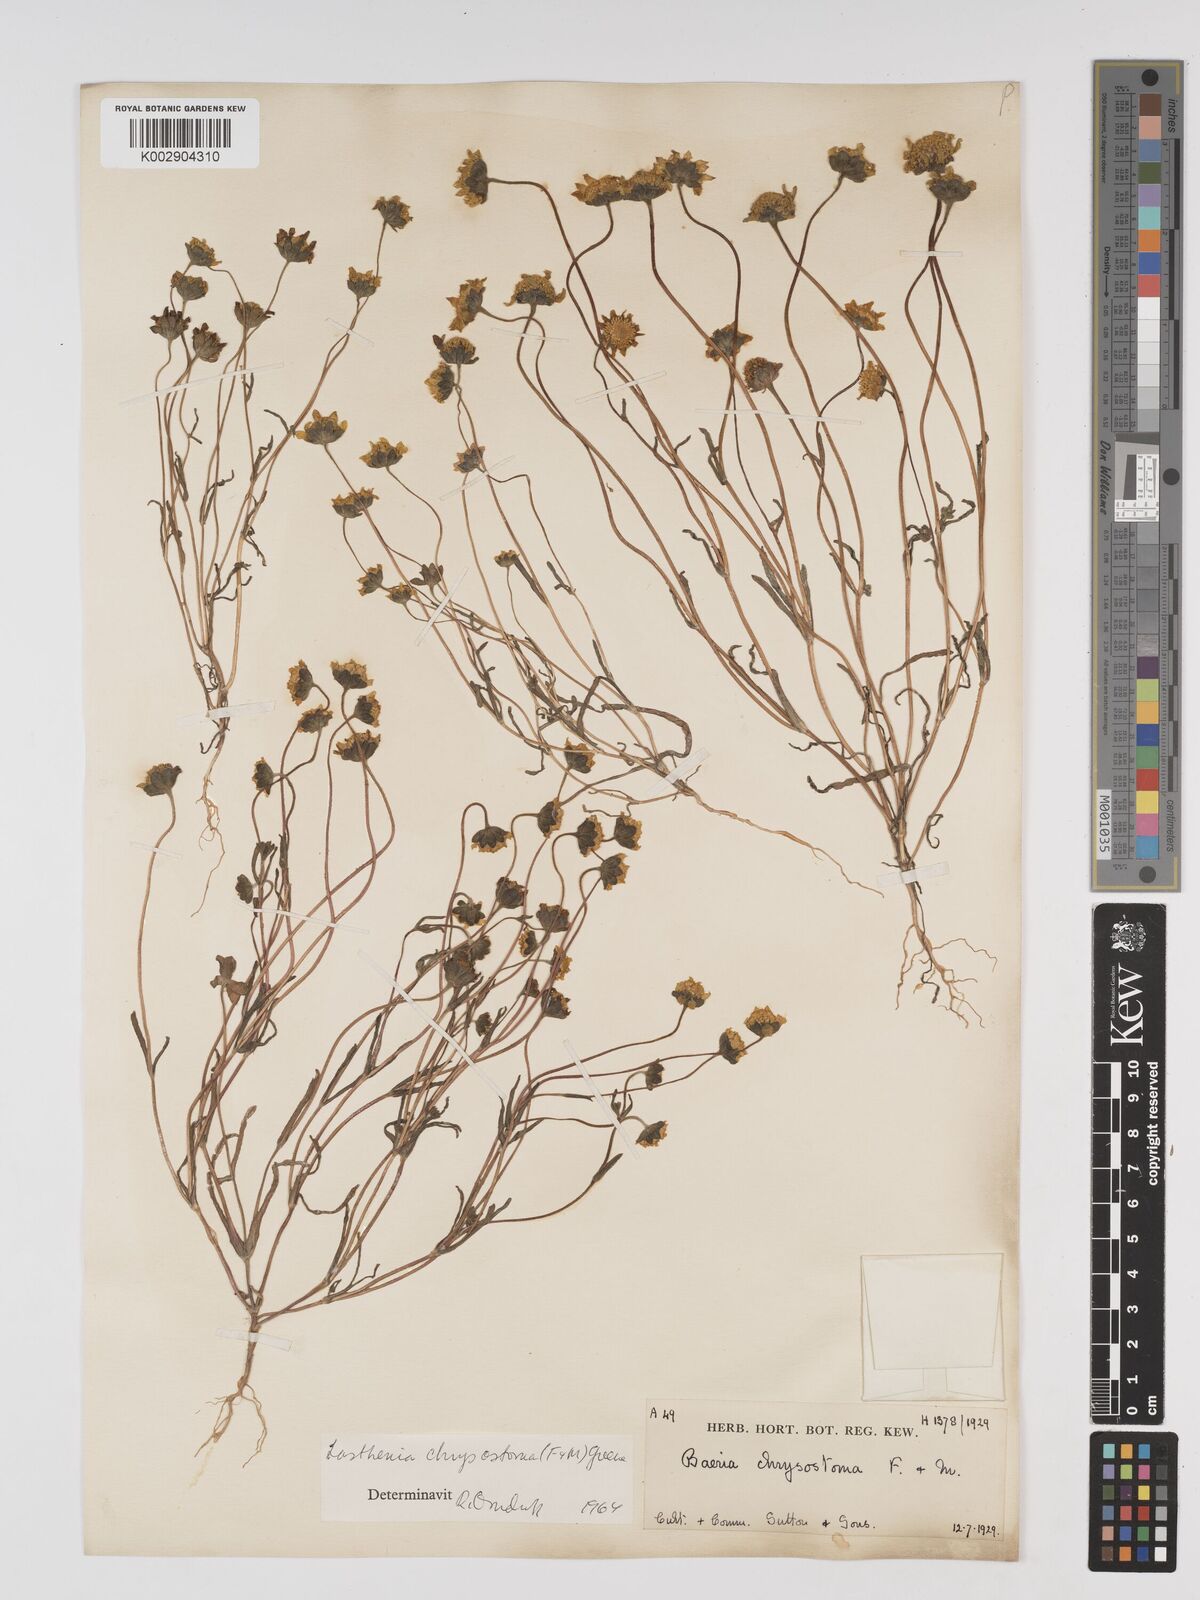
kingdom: Plantae
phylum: Tracheophyta
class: Magnoliopsida
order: Asterales
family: Asteraceae
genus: Lasthenia
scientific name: Lasthenia californica
